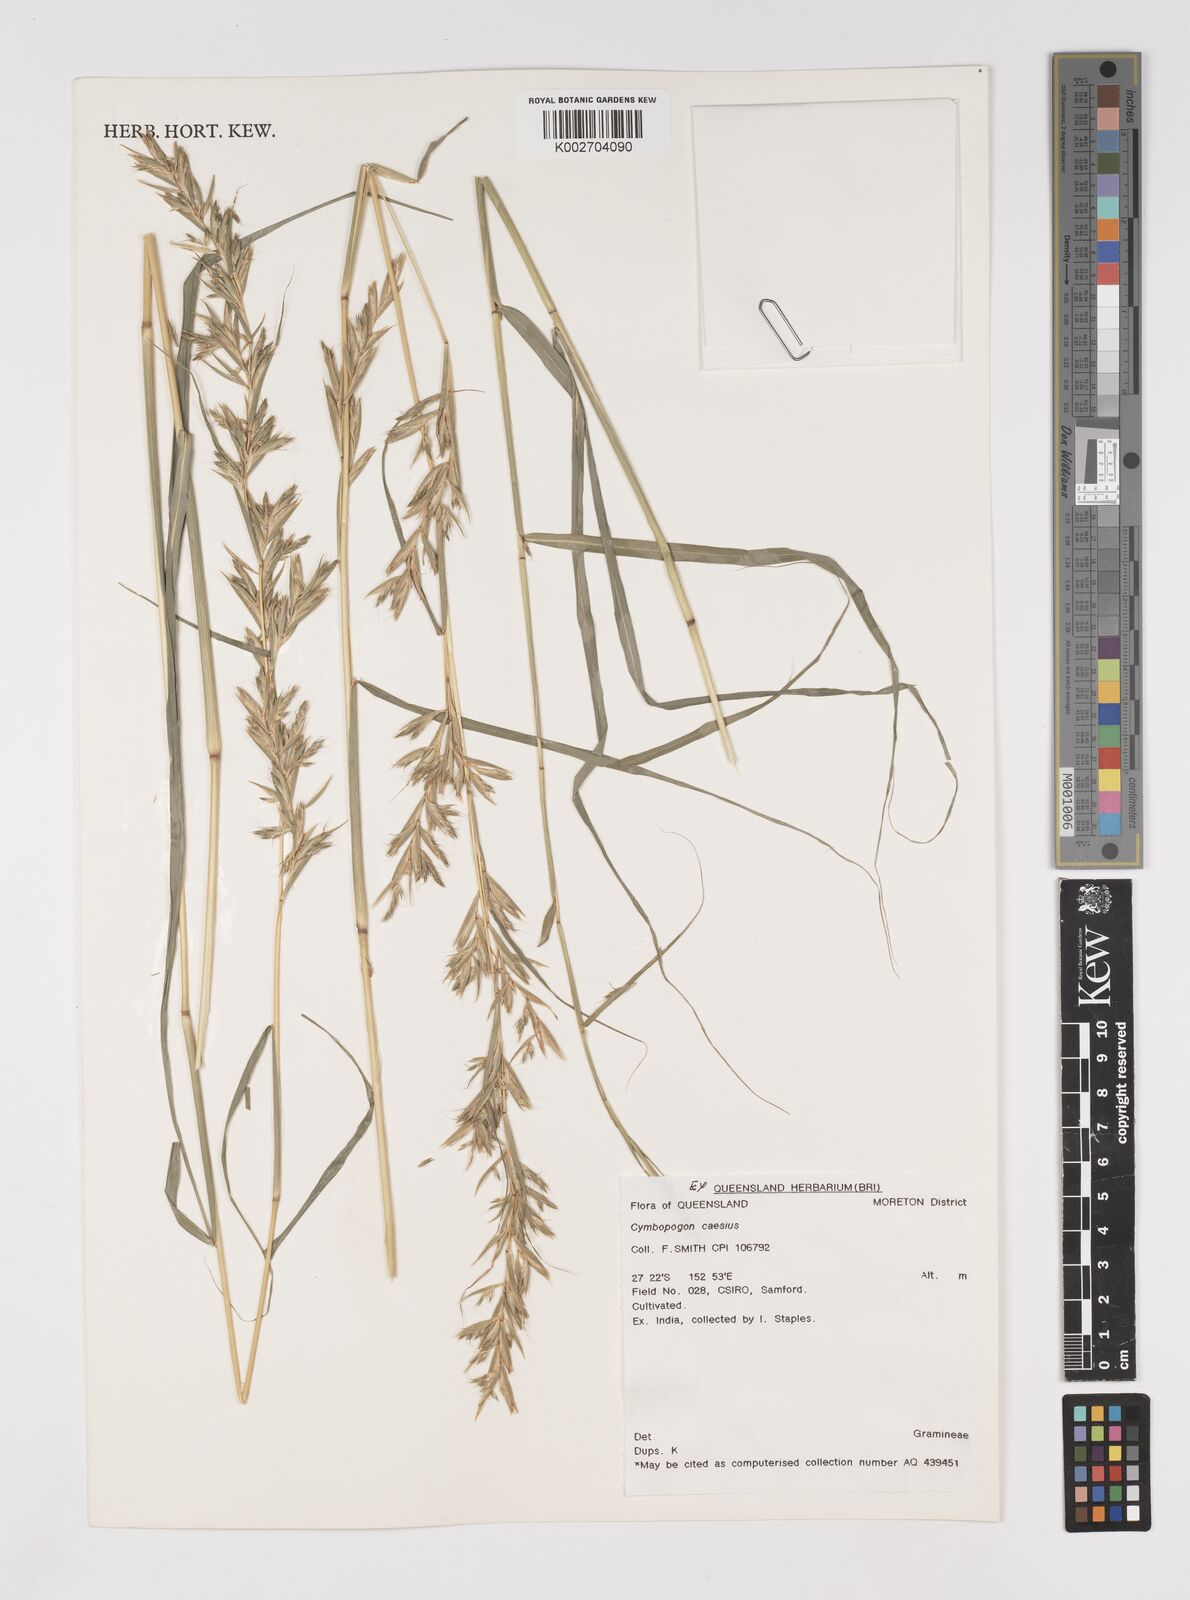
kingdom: Plantae
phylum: Tracheophyta
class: Liliopsida
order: Poales
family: Poaceae
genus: Cymbopogon
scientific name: Cymbopogon caesius
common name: Kachi grass
